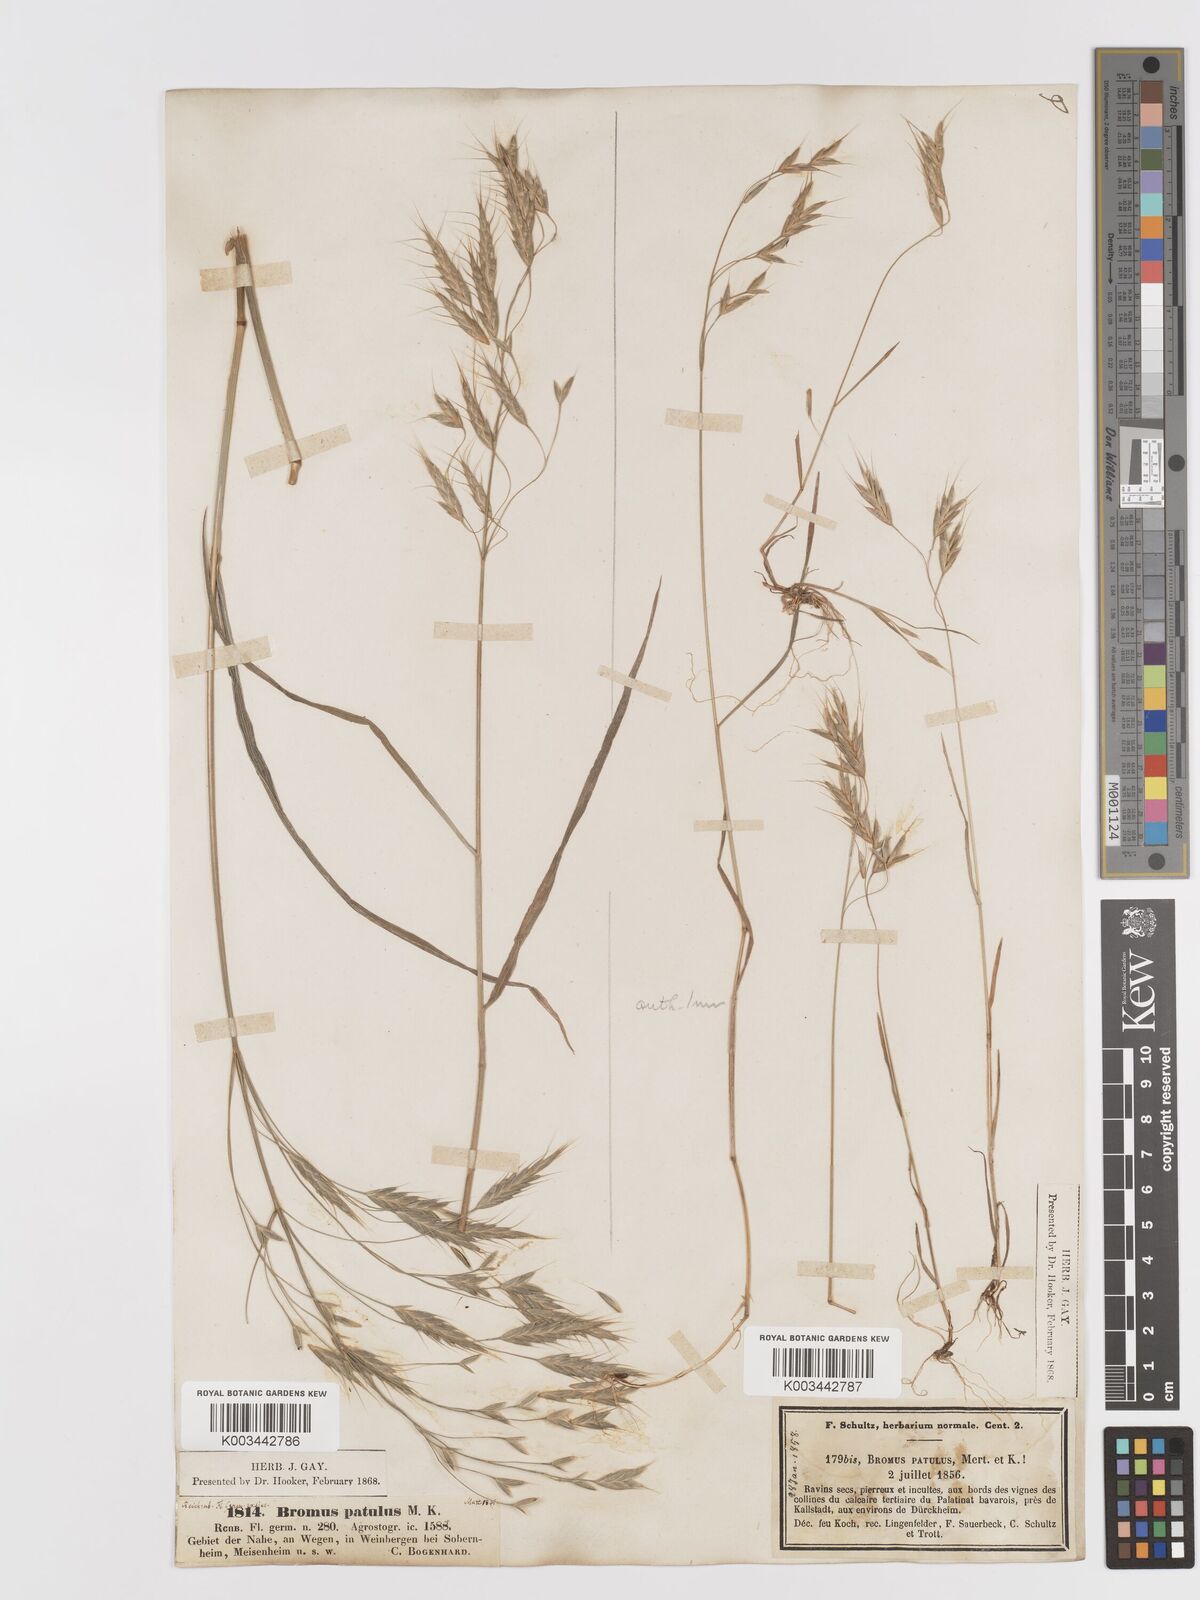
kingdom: Plantae
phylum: Tracheophyta
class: Liliopsida
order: Poales
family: Poaceae
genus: Bromus
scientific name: Bromus japonicus
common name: Japanese brome
